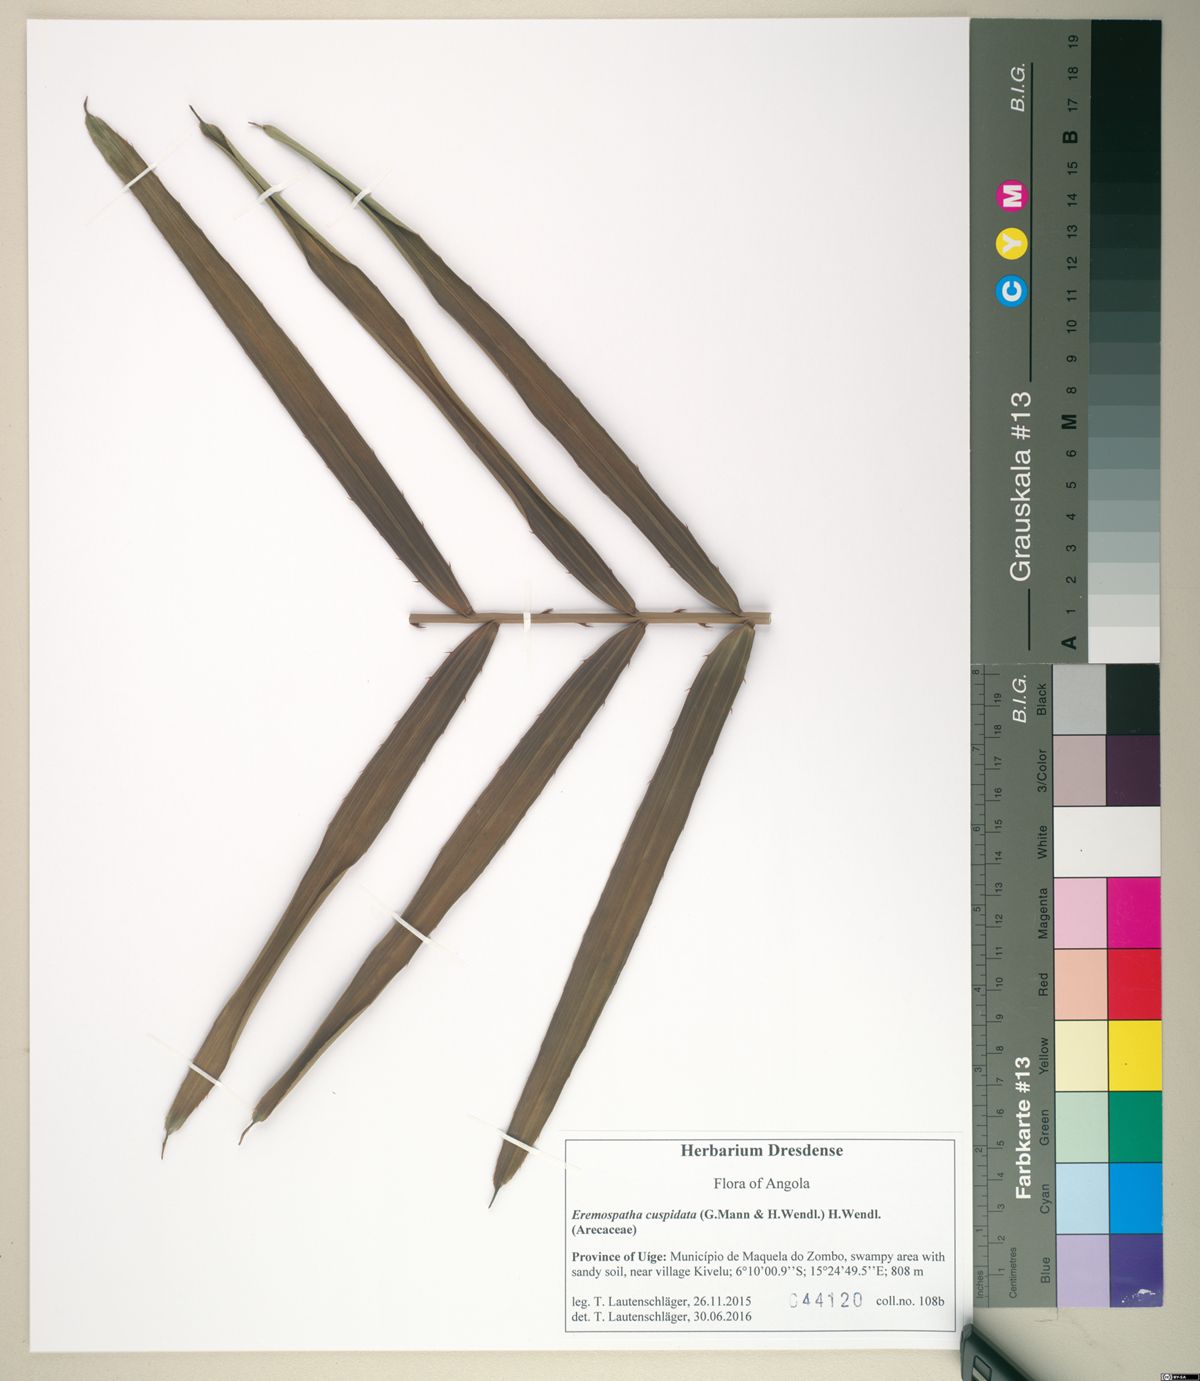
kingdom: Plantae
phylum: Tracheophyta
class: Liliopsida
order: Arecales
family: Arecaceae
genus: Eremospatha
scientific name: Eremospatha cuspidata
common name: Rattan
